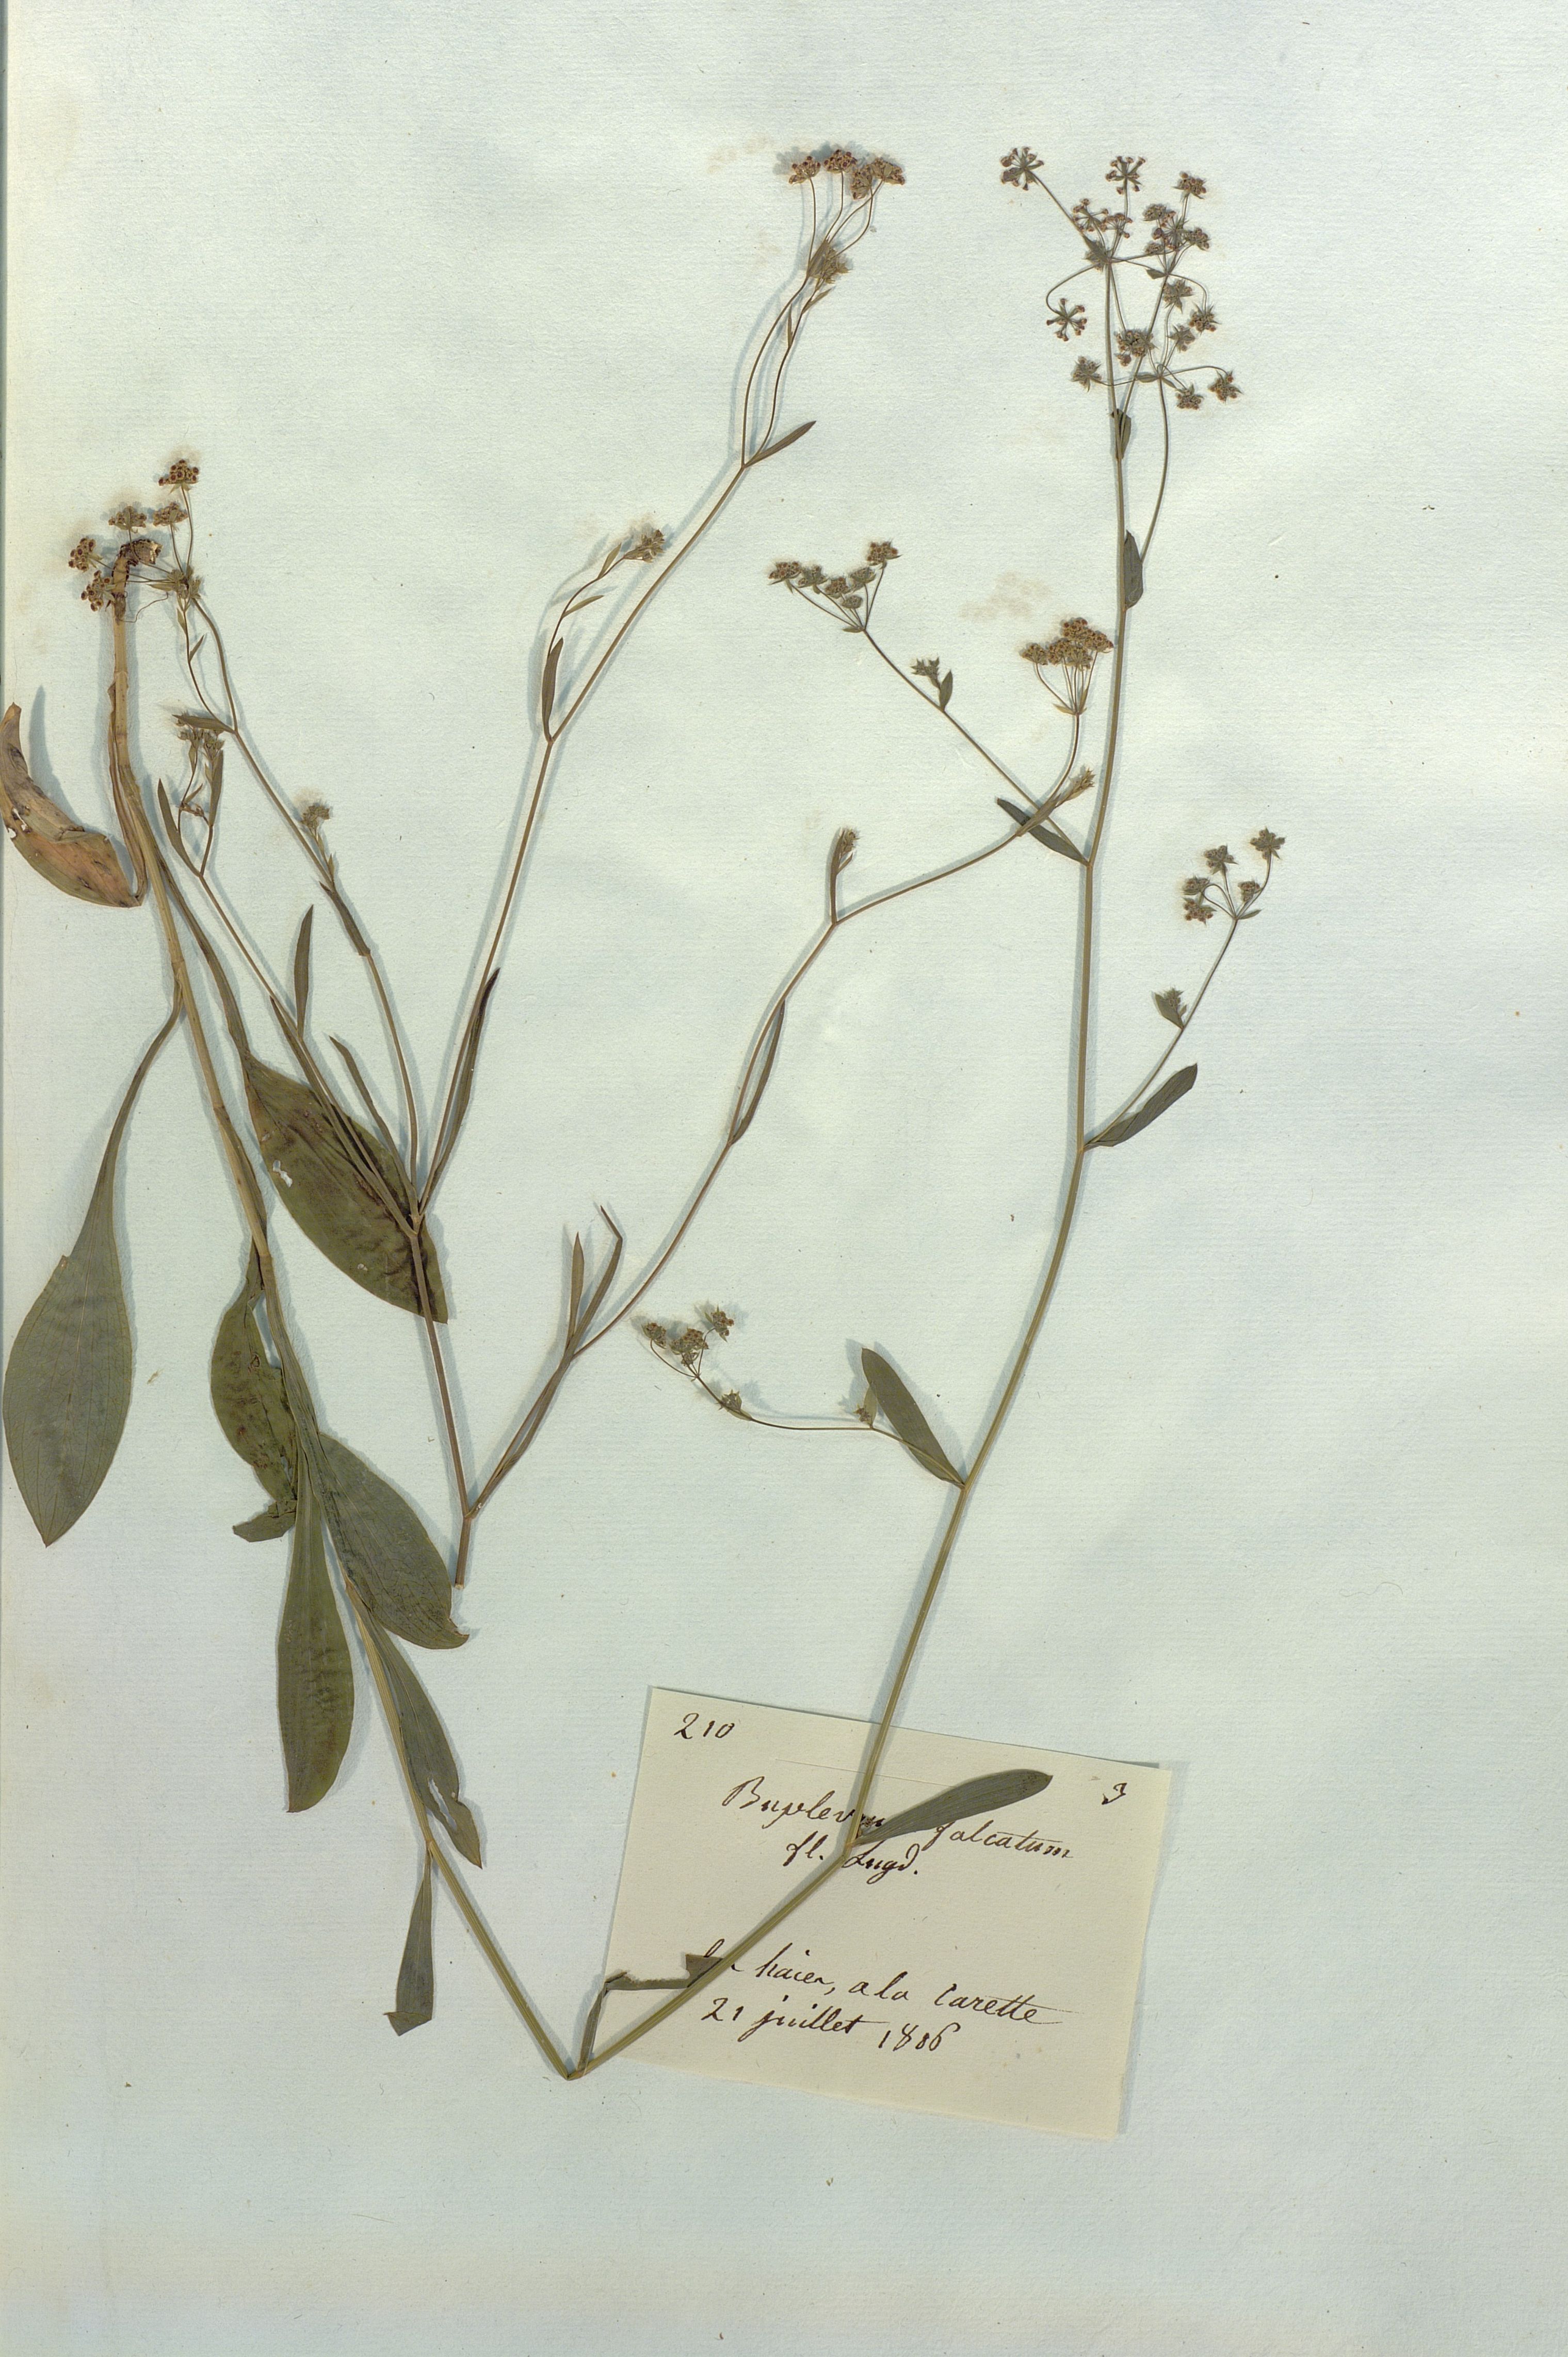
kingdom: Plantae
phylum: Tracheophyta
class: Magnoliopsida
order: Apiales
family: Apiaceae
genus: Bupleurum
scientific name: Bupleurum falcatum
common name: Sickle-leaved hare's-ear
